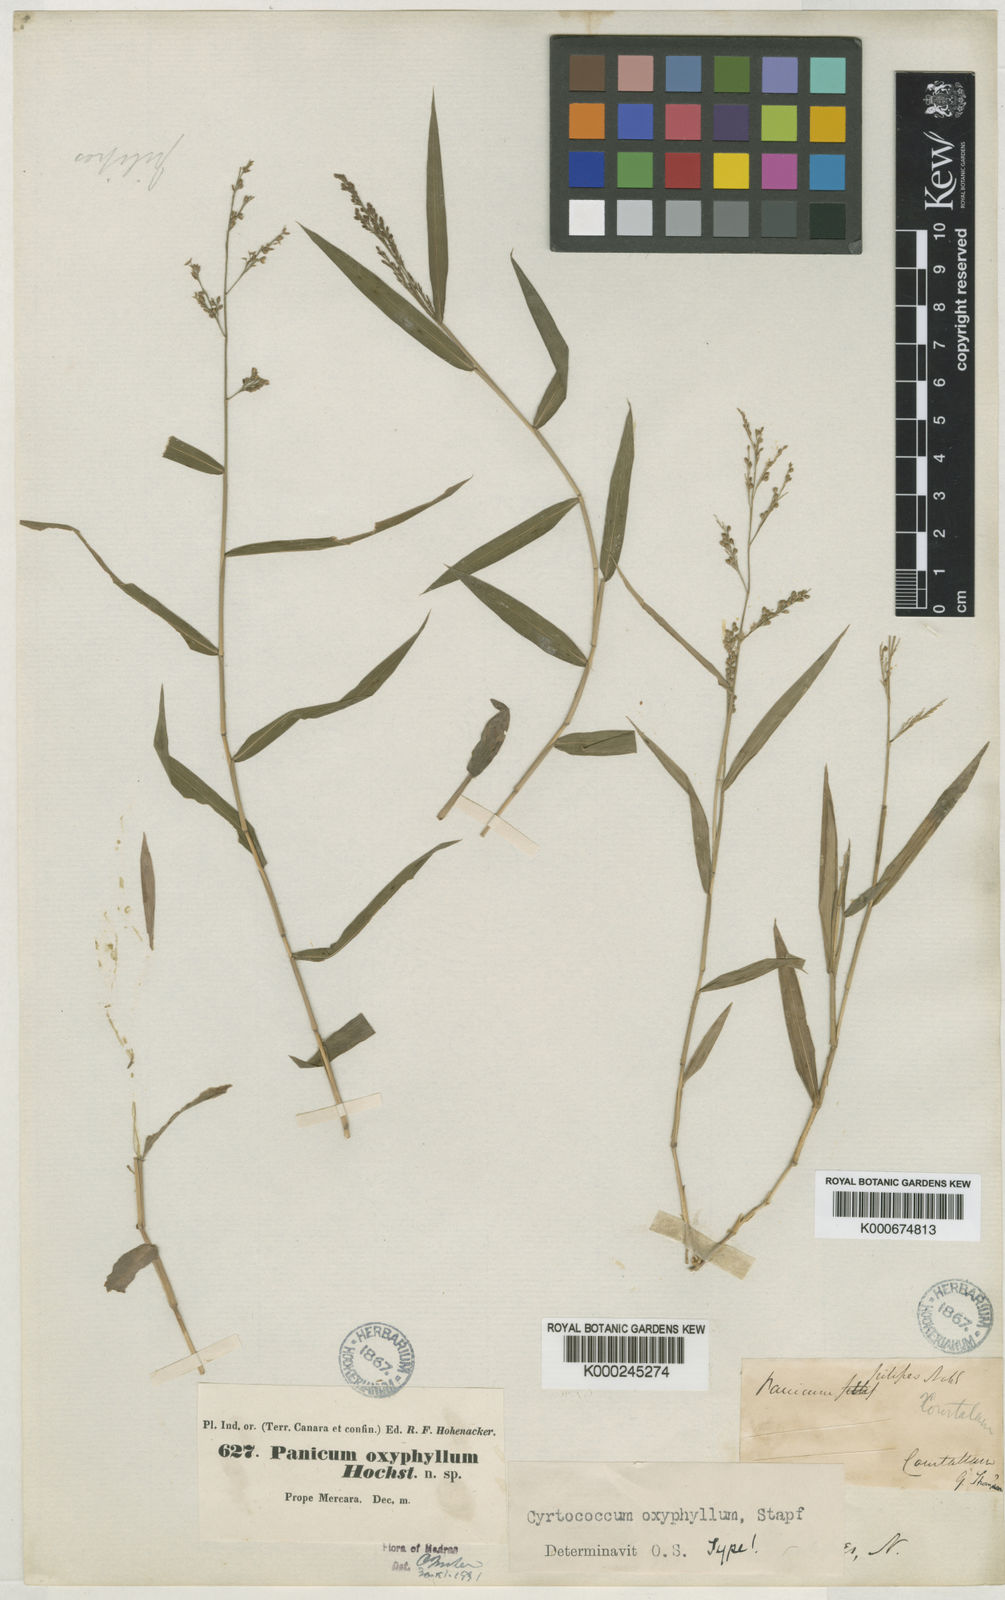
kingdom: Plantae
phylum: Tracheophyta
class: Liliopsida
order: Poales
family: Poaceae
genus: Cyrtococcum
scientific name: Cyrtococcum oxyphyllum
